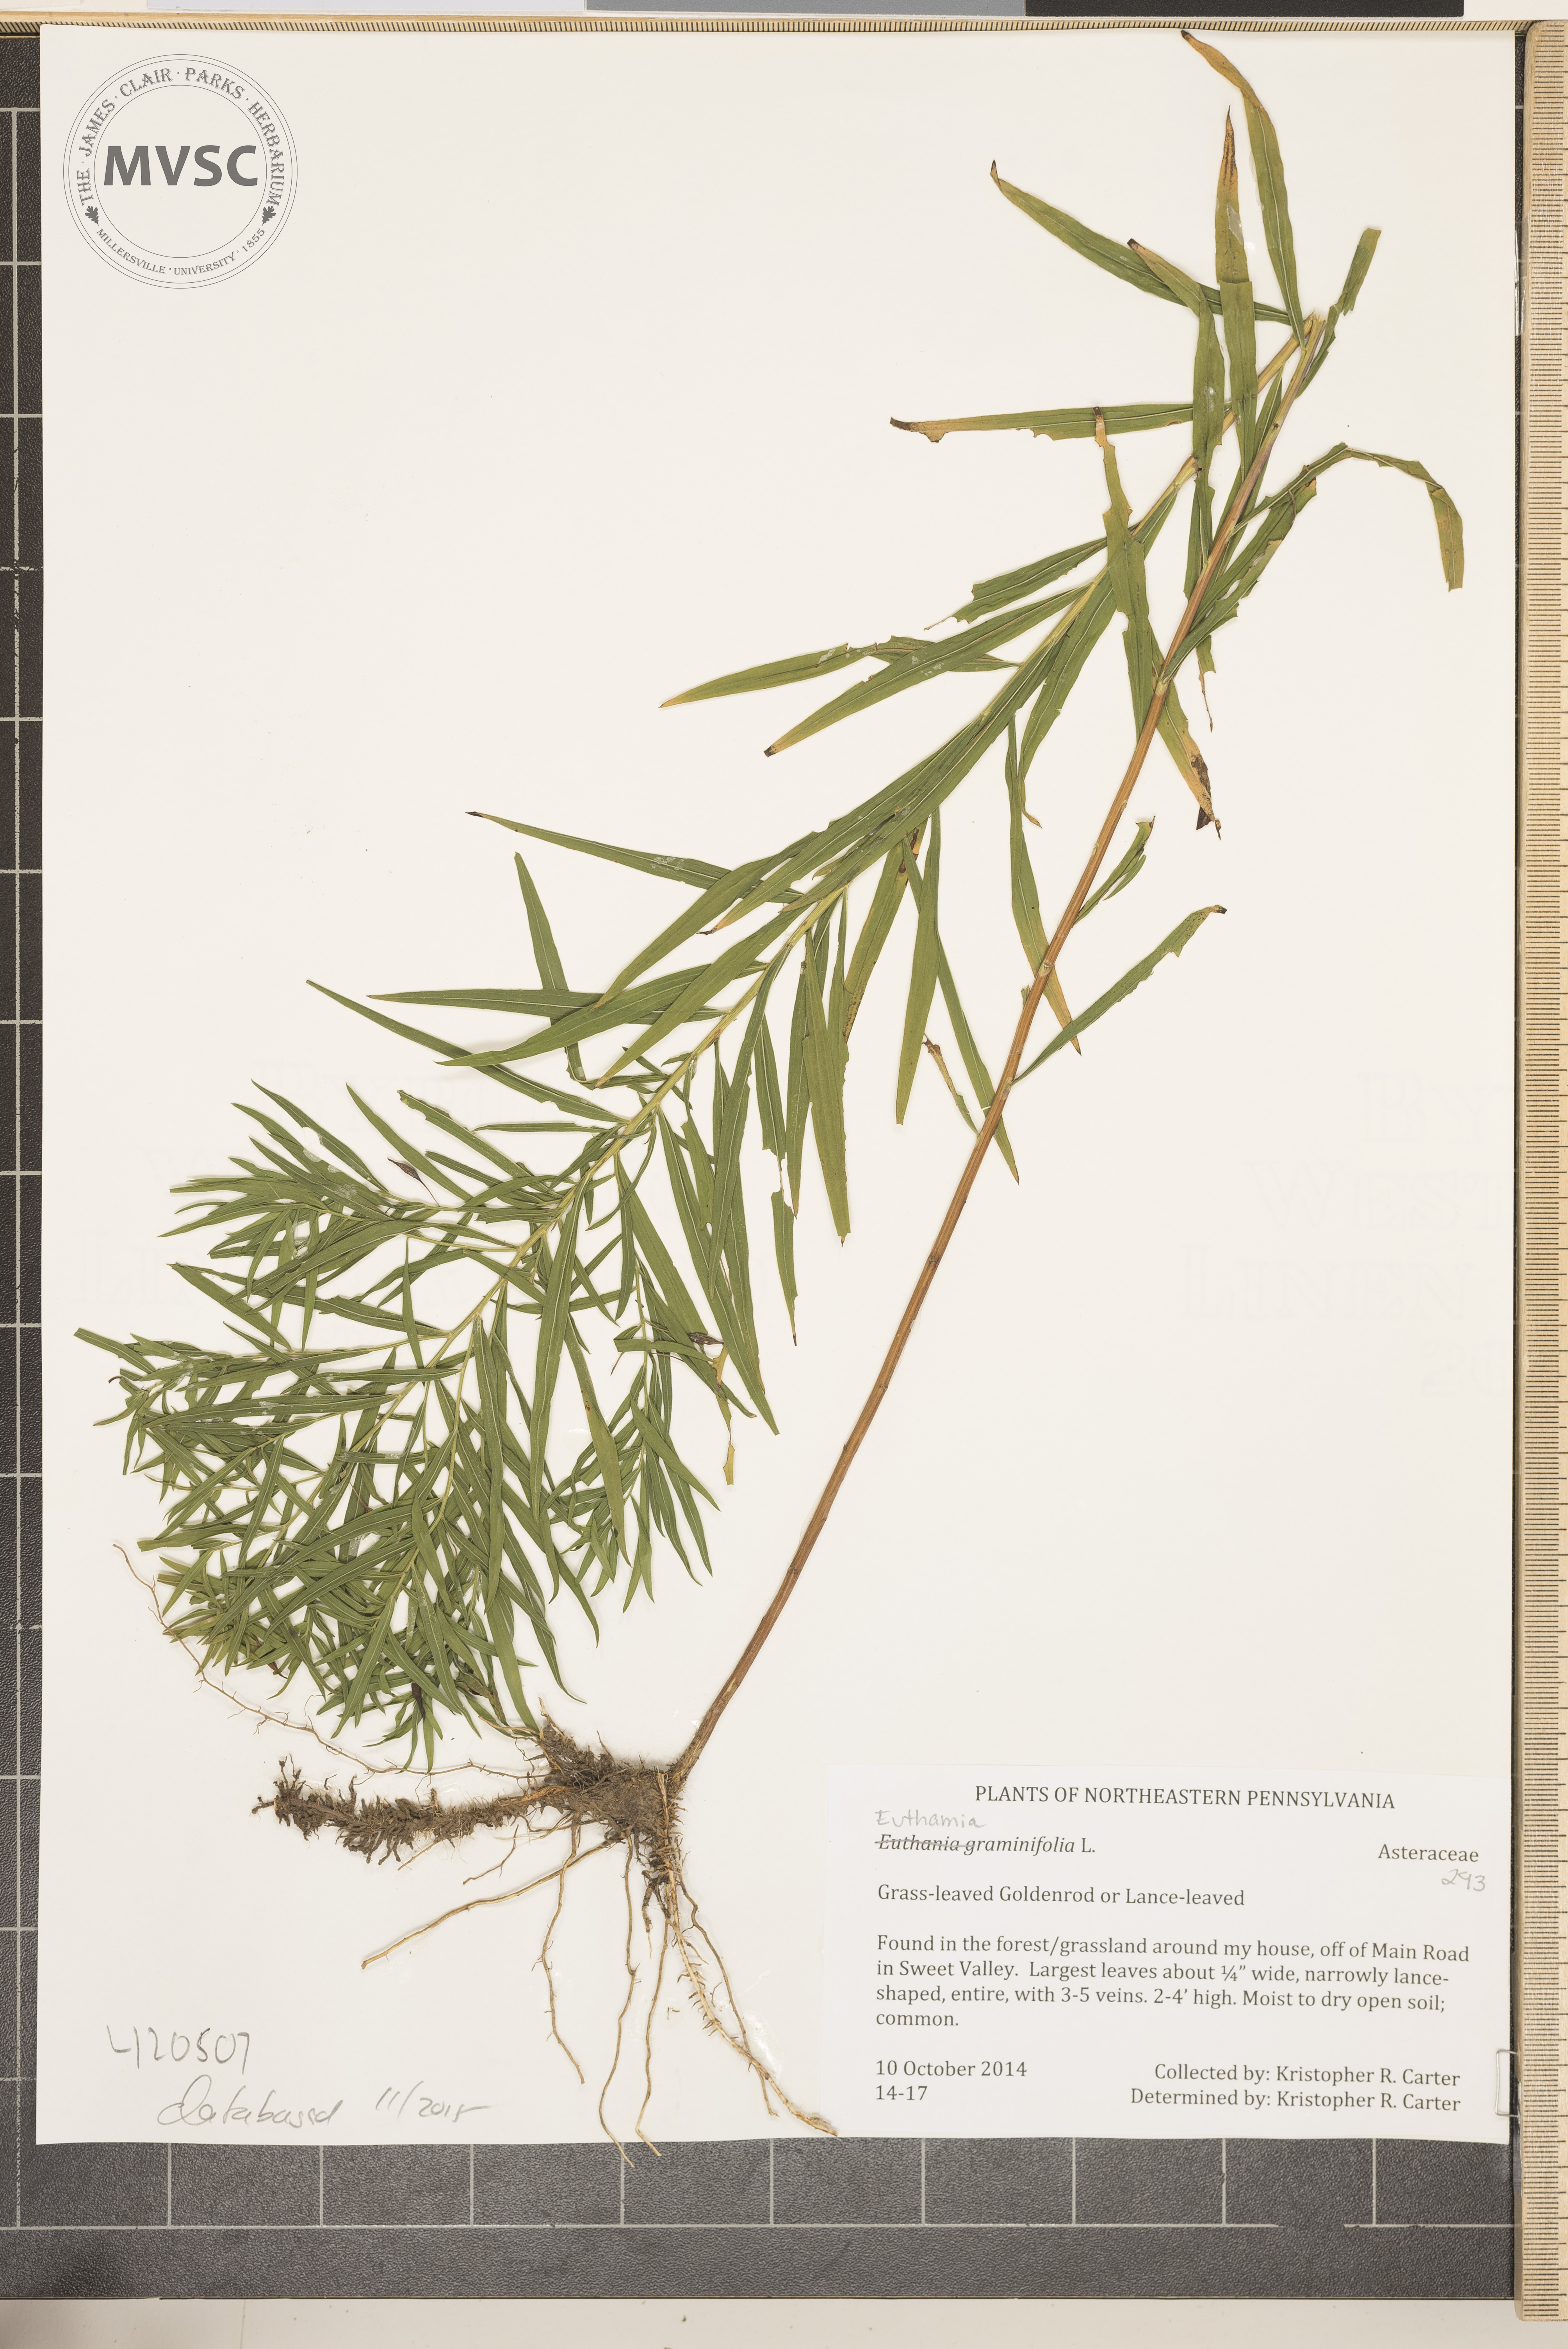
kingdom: Plantae
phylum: Tracheophyta
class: Magnoliopsida
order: Asterales
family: Asteraceae
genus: Euthamia
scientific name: Euthamia graminifolia
